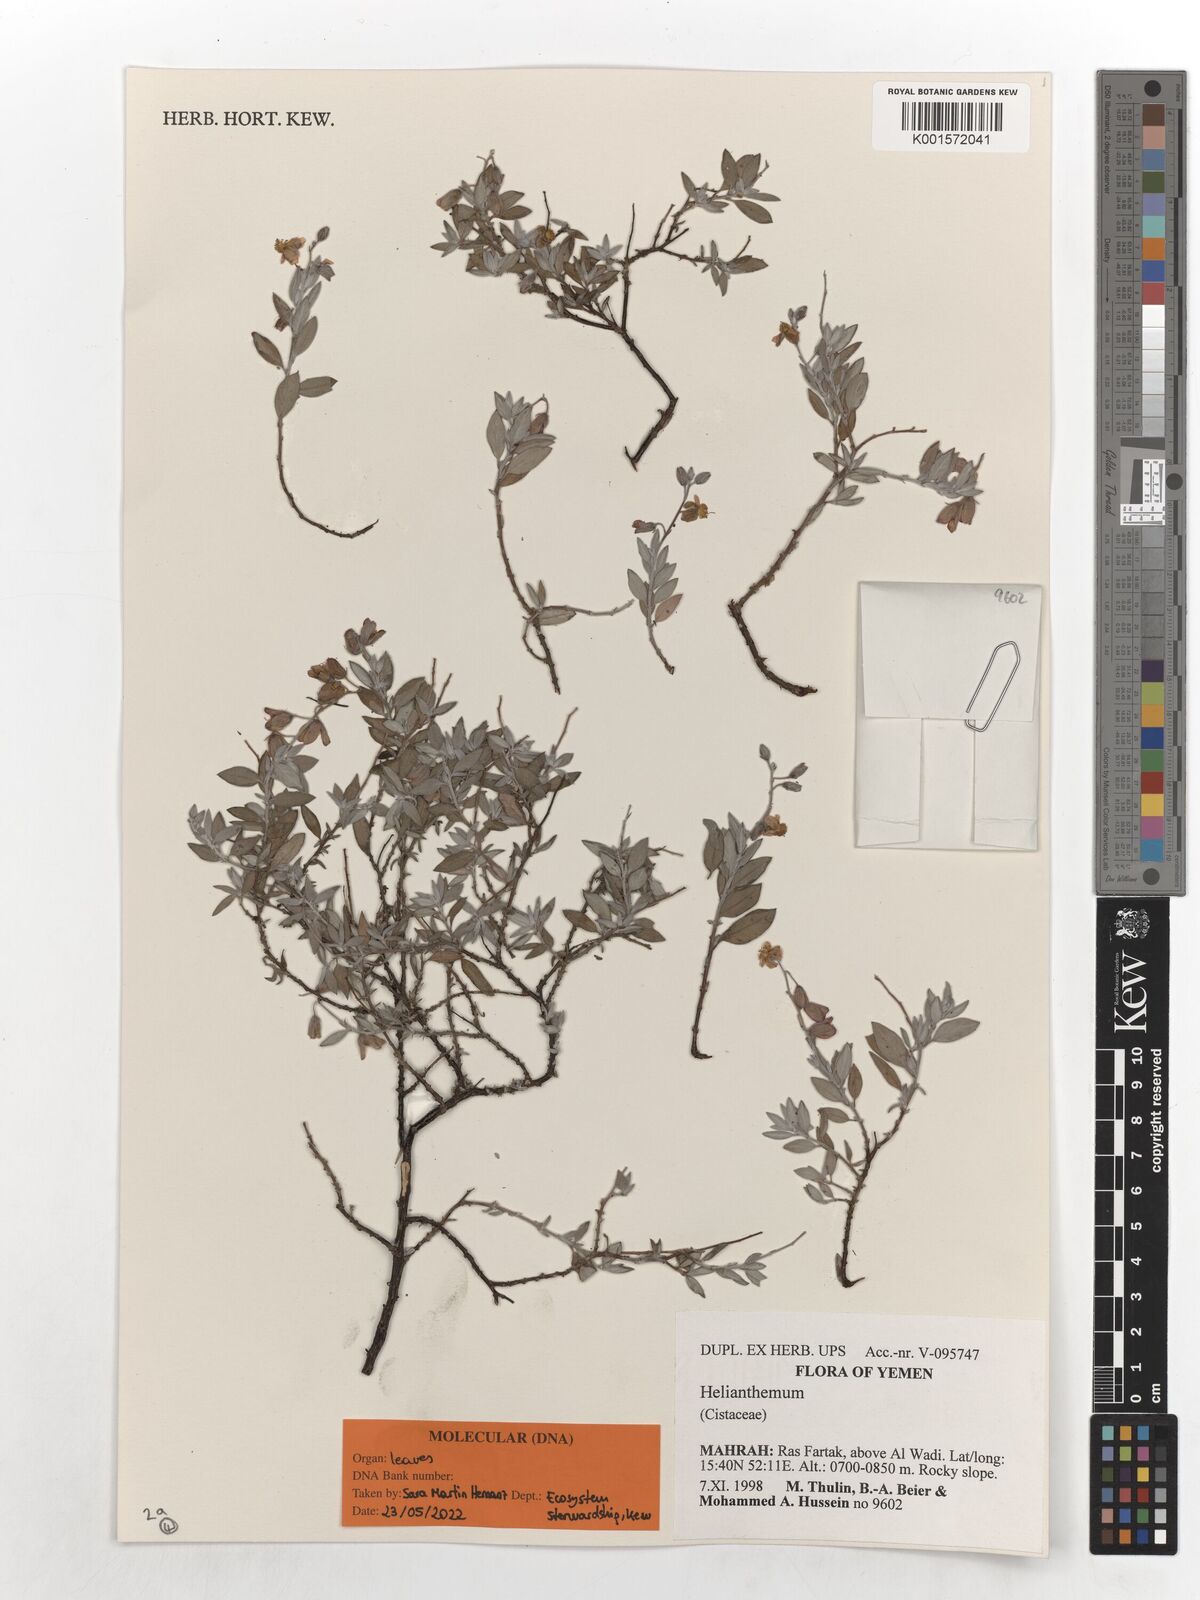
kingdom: Plantae
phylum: Tracheophyta
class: Magnoliopsida
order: Malvales
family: Cistaceae
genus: Helianthemum
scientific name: Helianthemum
